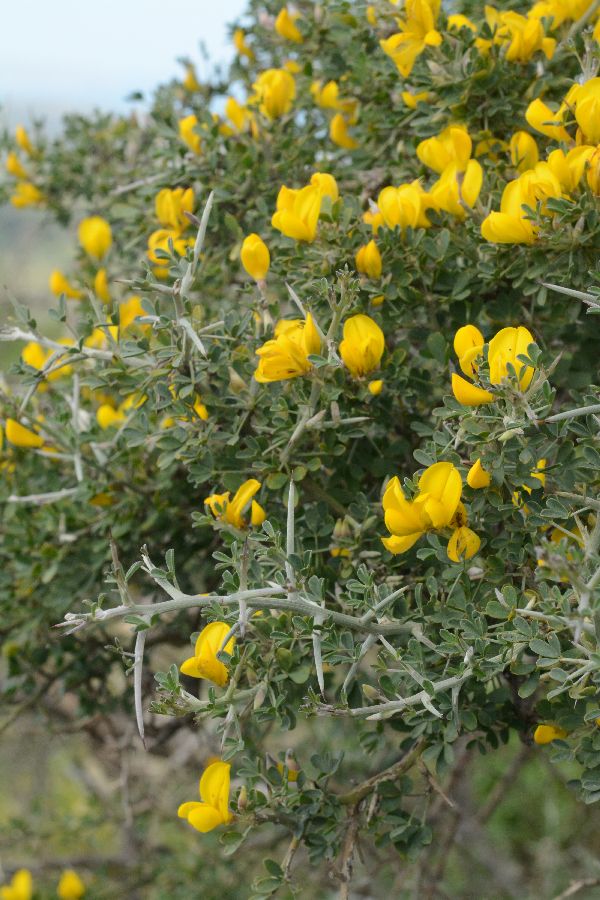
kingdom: Plantae
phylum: Tracheophyta
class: Magnoliopsida
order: Fabales
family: Fabaceae
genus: Calicotome
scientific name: Calicotome villosa
